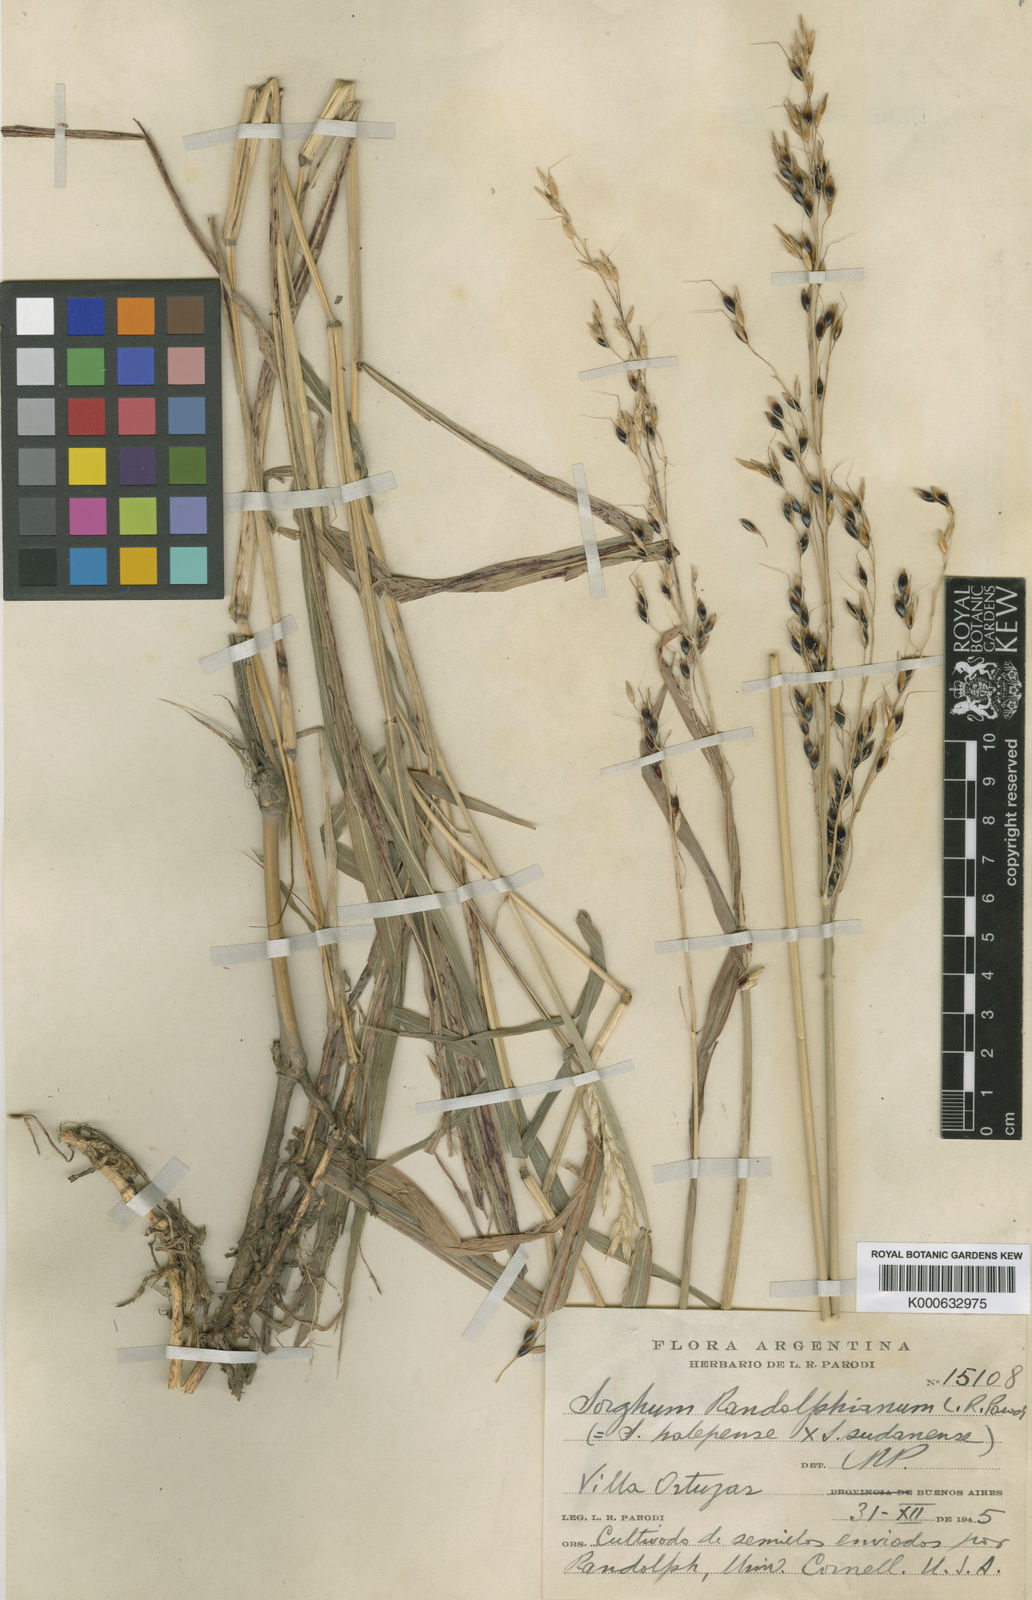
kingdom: Plantae
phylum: Tracheophyta
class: Liliopsida
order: Poales
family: Poaceae
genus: Sorghum
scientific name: Sorghum almum
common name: Columbus grass
